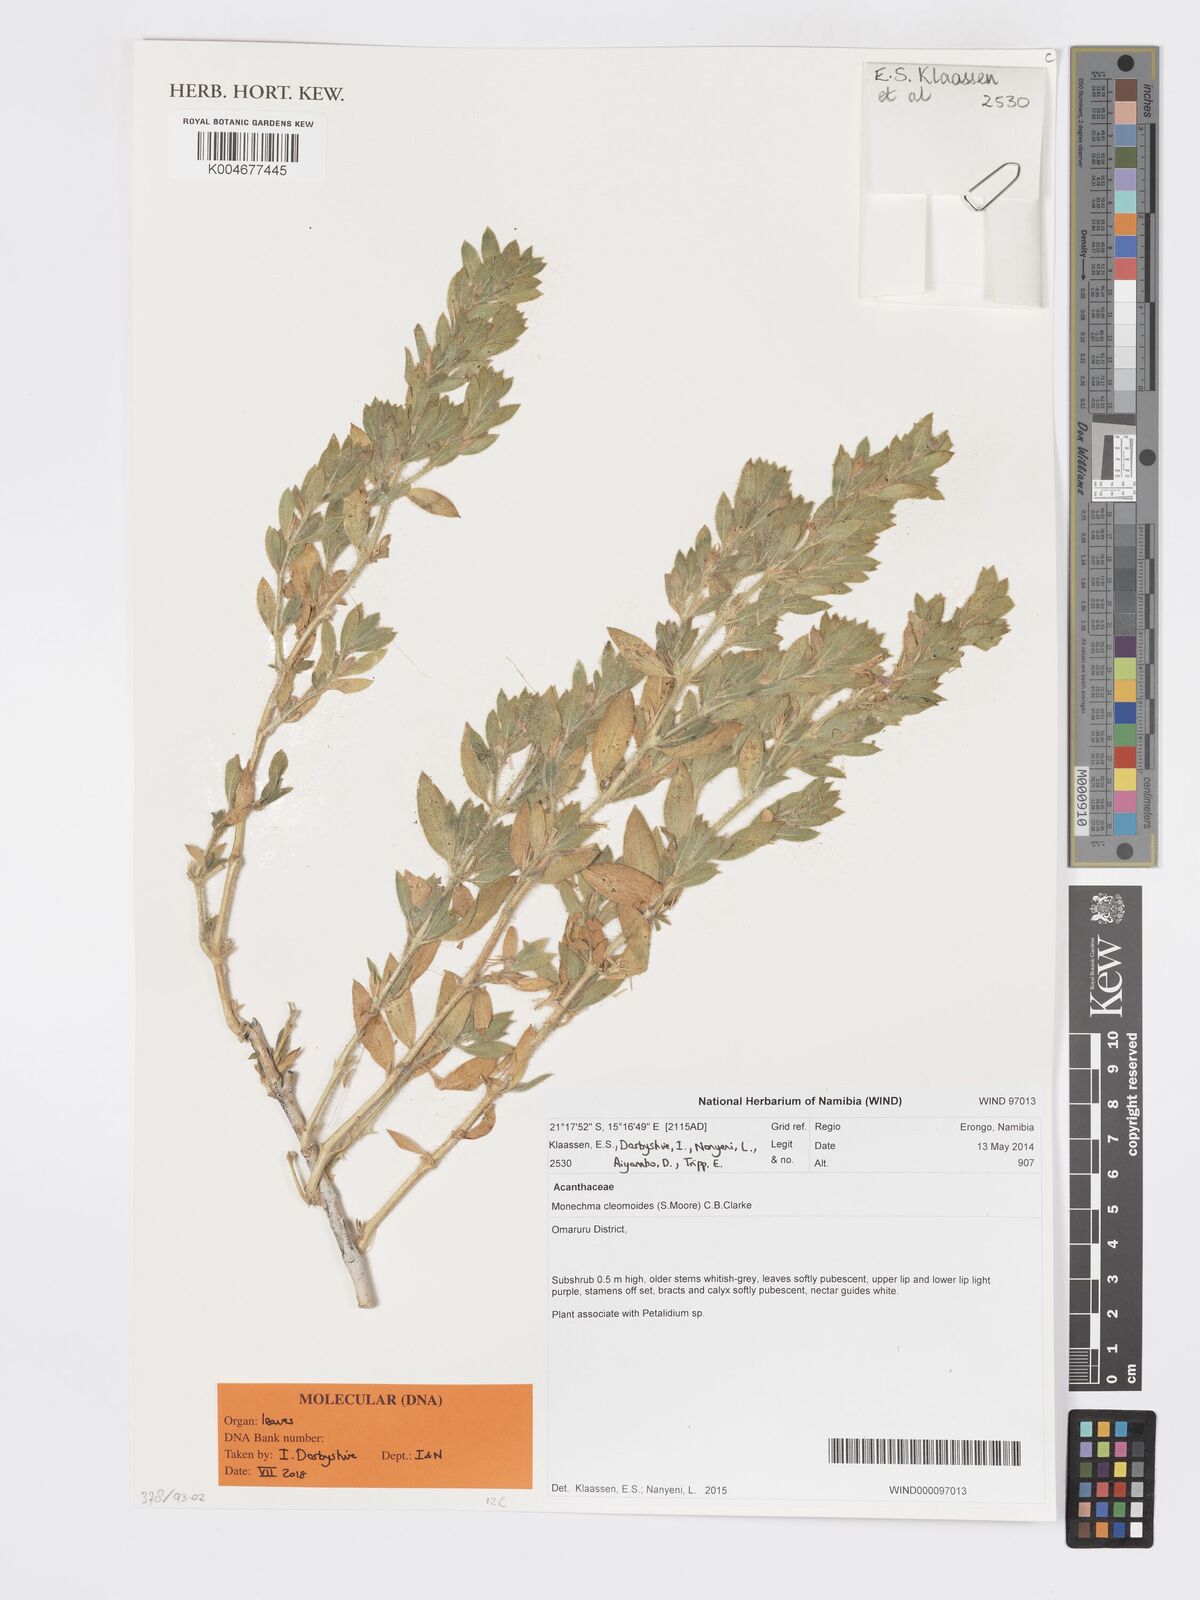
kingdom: Plantae
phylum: Tracheophyta
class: Magnoliopsida
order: Lamiales
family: Acanthaceae
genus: Pogonospermum
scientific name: Pogonospermum
